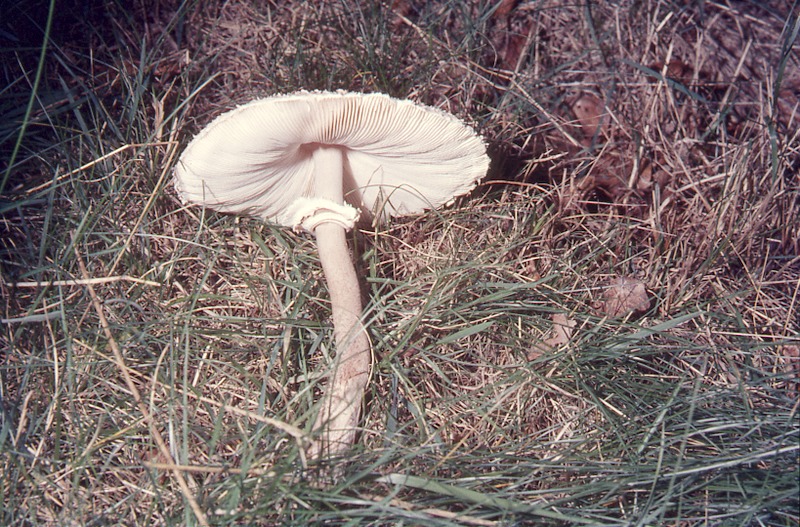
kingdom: Fungi
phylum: Basidiomycota
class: Agaricomycetes
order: Agaricales
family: Agaricaceae
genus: Macrolepiota
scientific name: Macrolepiota procera
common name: Parasol
